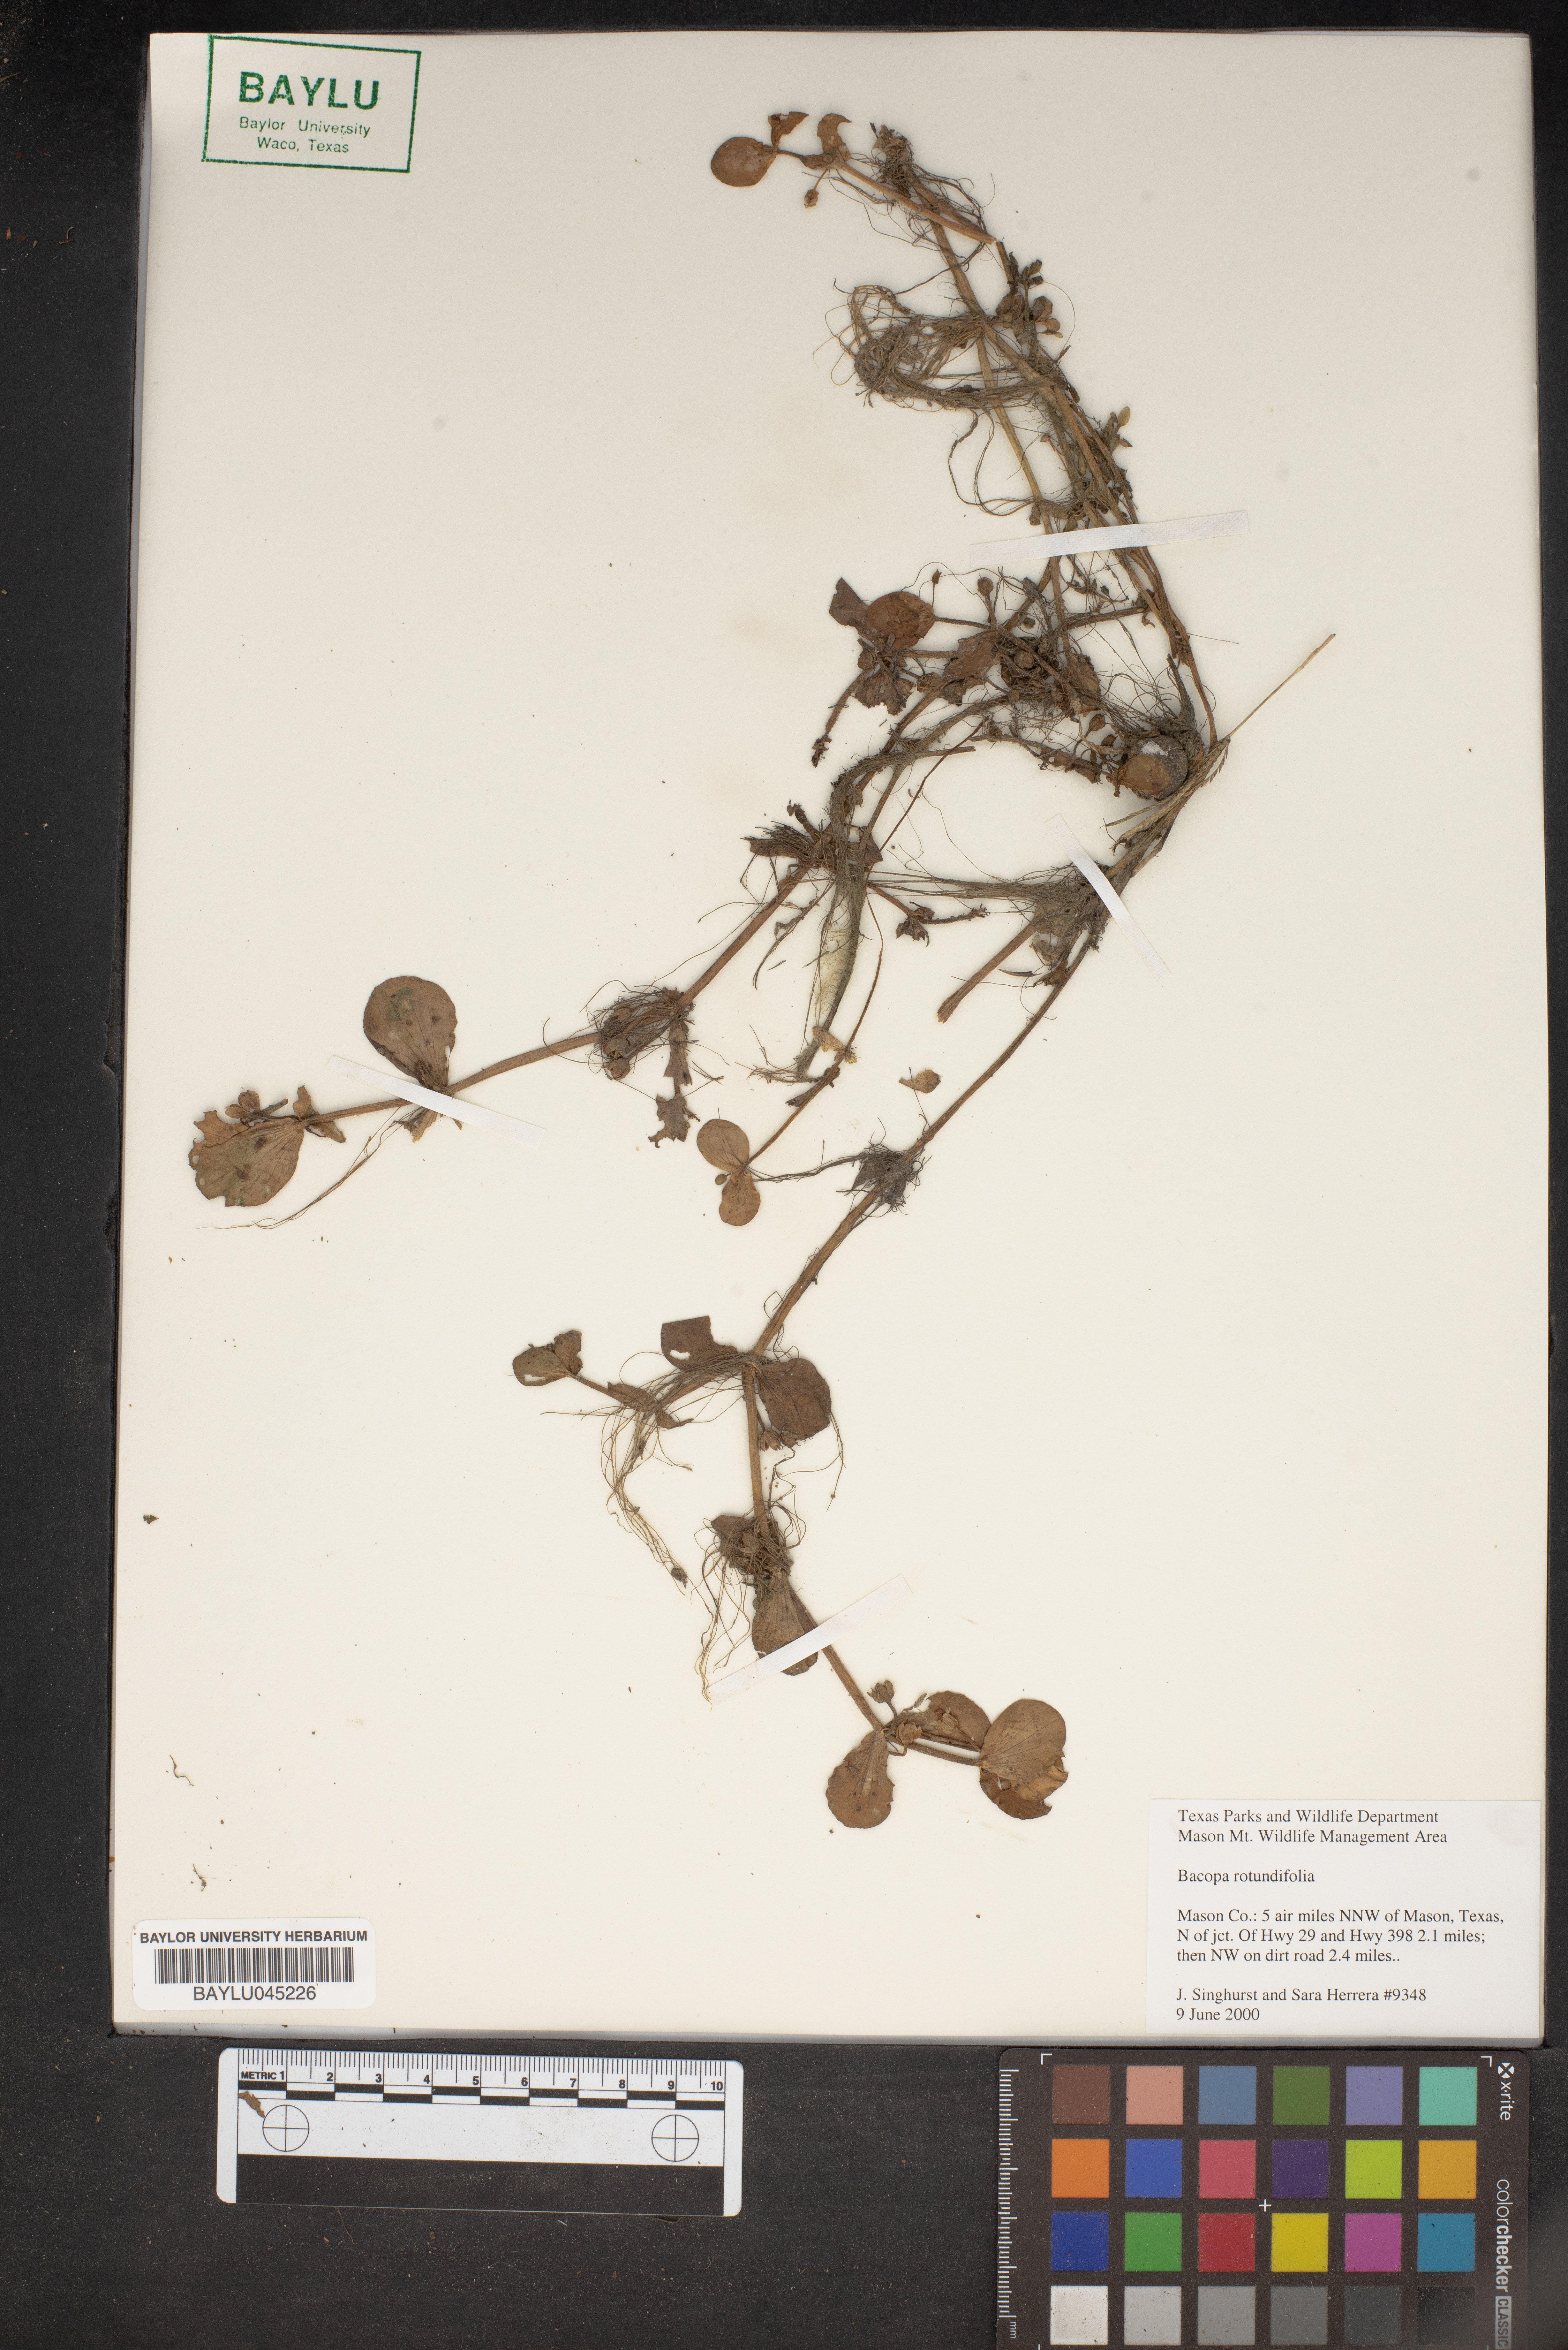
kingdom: Plantae
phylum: Tracheophyta
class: Magnoliopsida
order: Lamiales
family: Plantaginaceae
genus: Bacopa
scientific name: Bacopa rotundifolia
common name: Disc water hyssop
